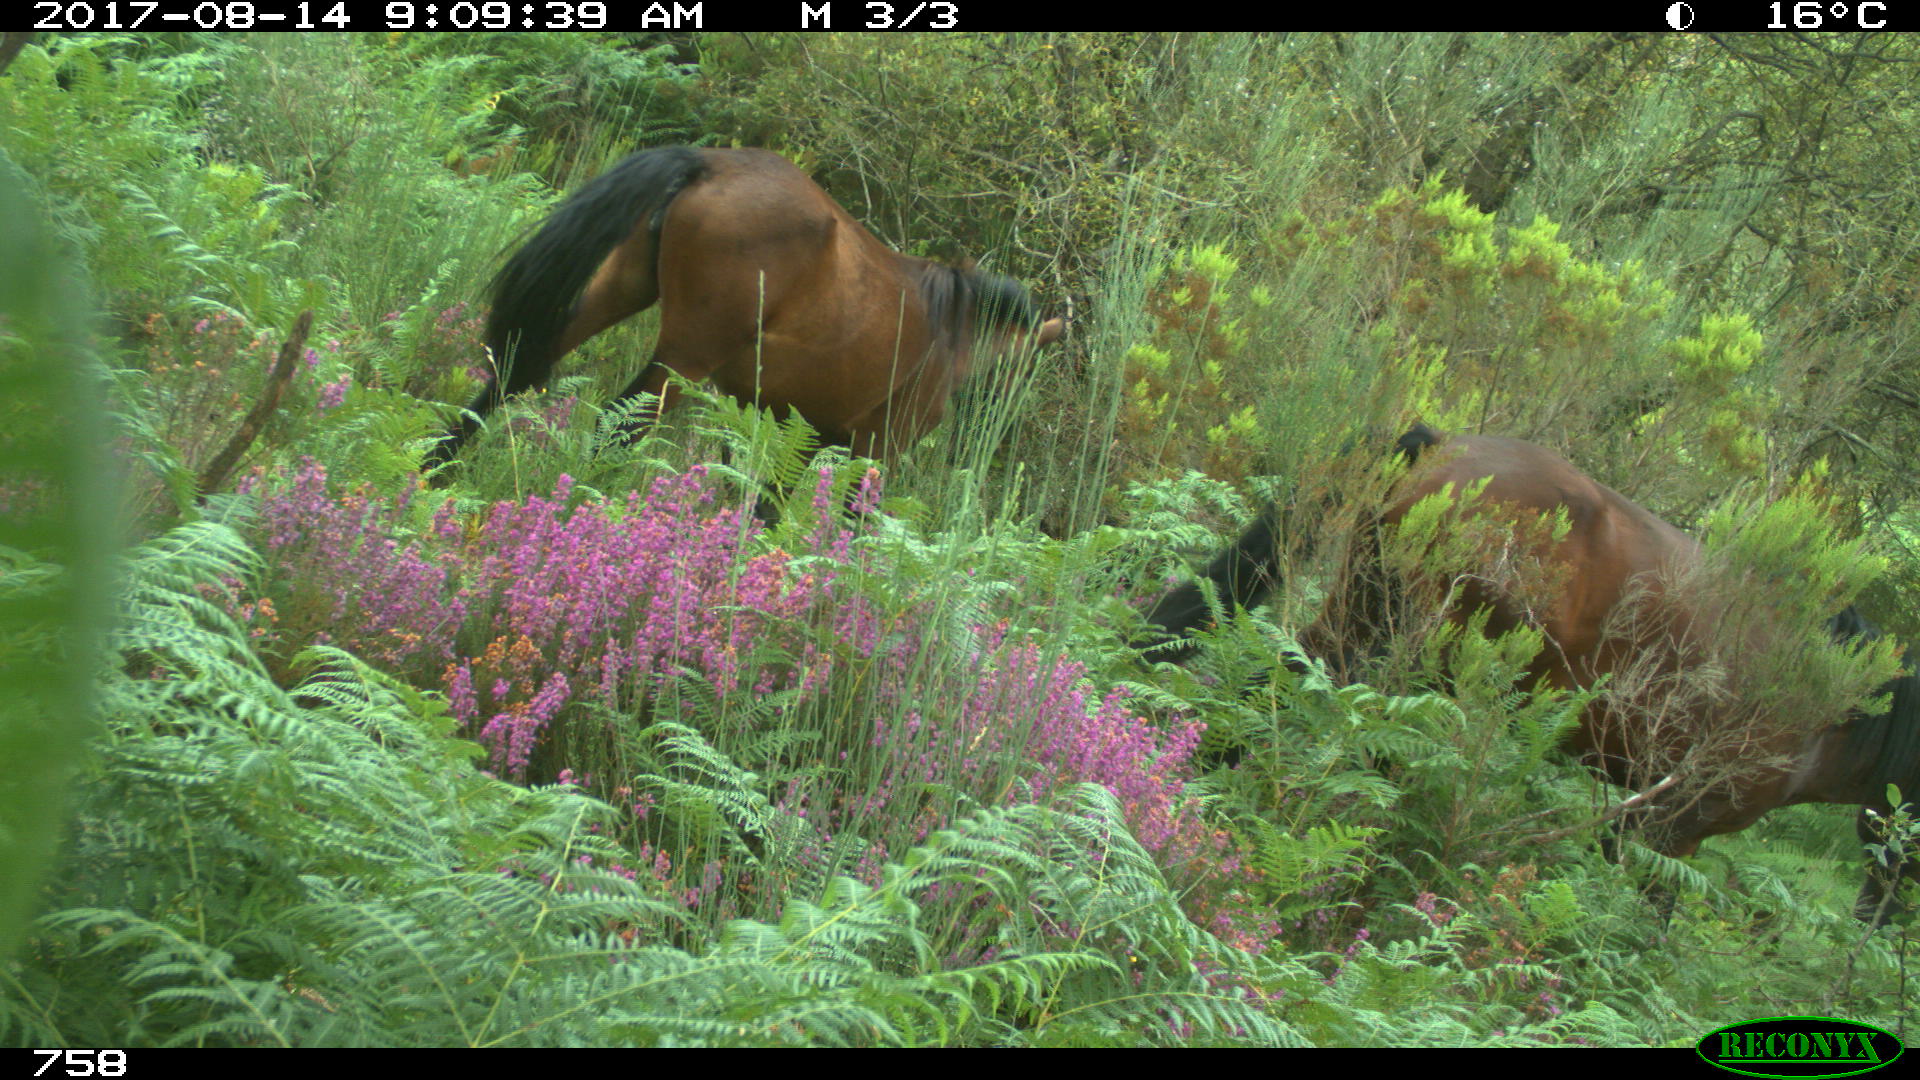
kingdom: Animalia
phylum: Chordata
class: Mammalia
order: Perissodactyla
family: Equidae
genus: Equus
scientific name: Equus caballus
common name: Horse
